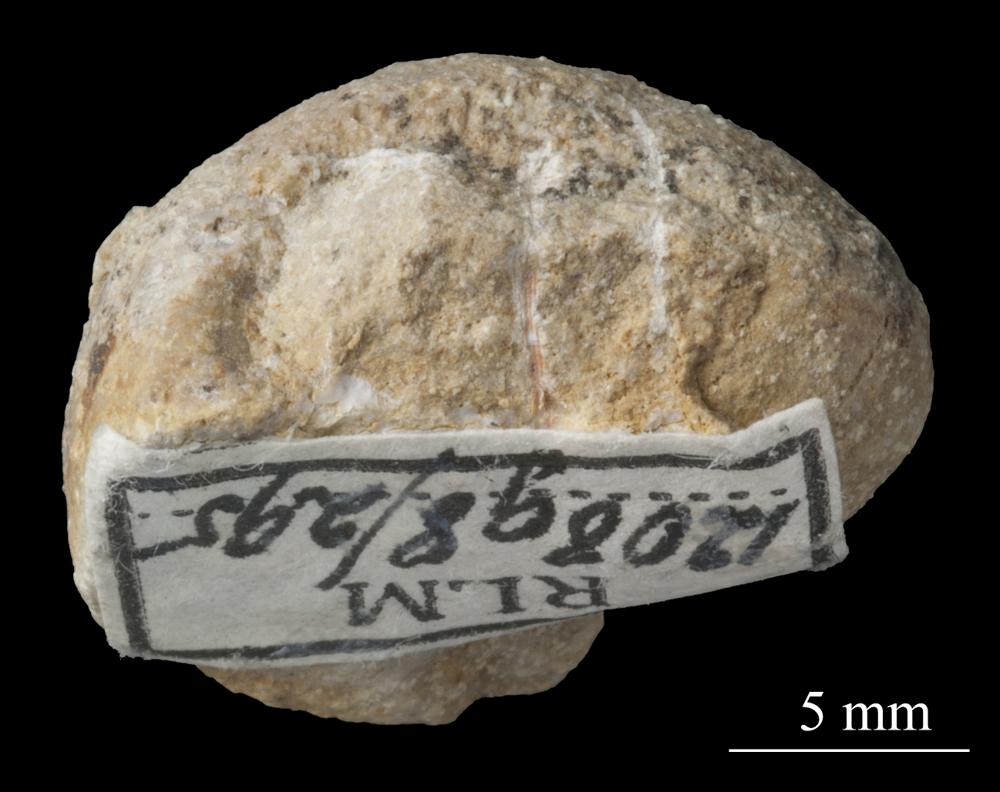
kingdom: Animalia
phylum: Mollusca
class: Gastropoda
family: Bellerophontidae
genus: Bellerophon
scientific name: Bellerophon
